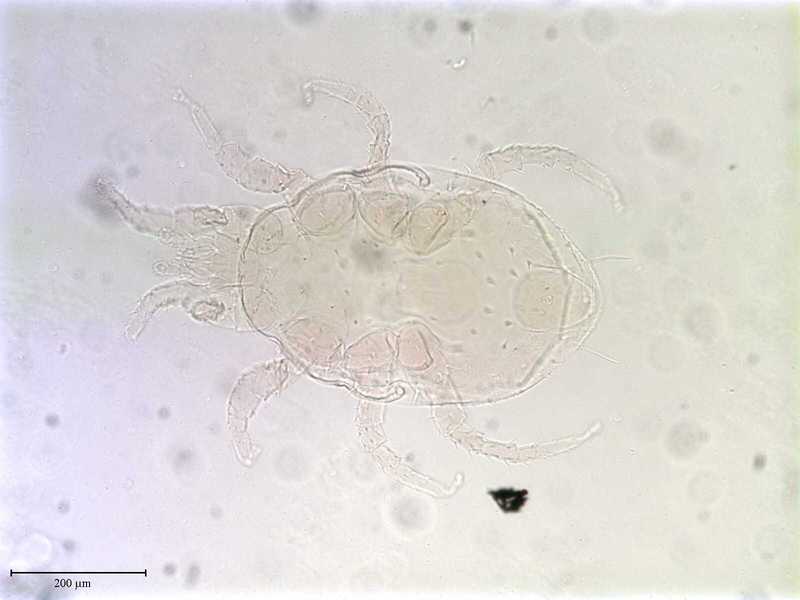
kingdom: Animalia
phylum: Arthropoda
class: Arachnida
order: Mesostigmata
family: Laelapidae
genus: Hypoaspis
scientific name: Hypoaspis
